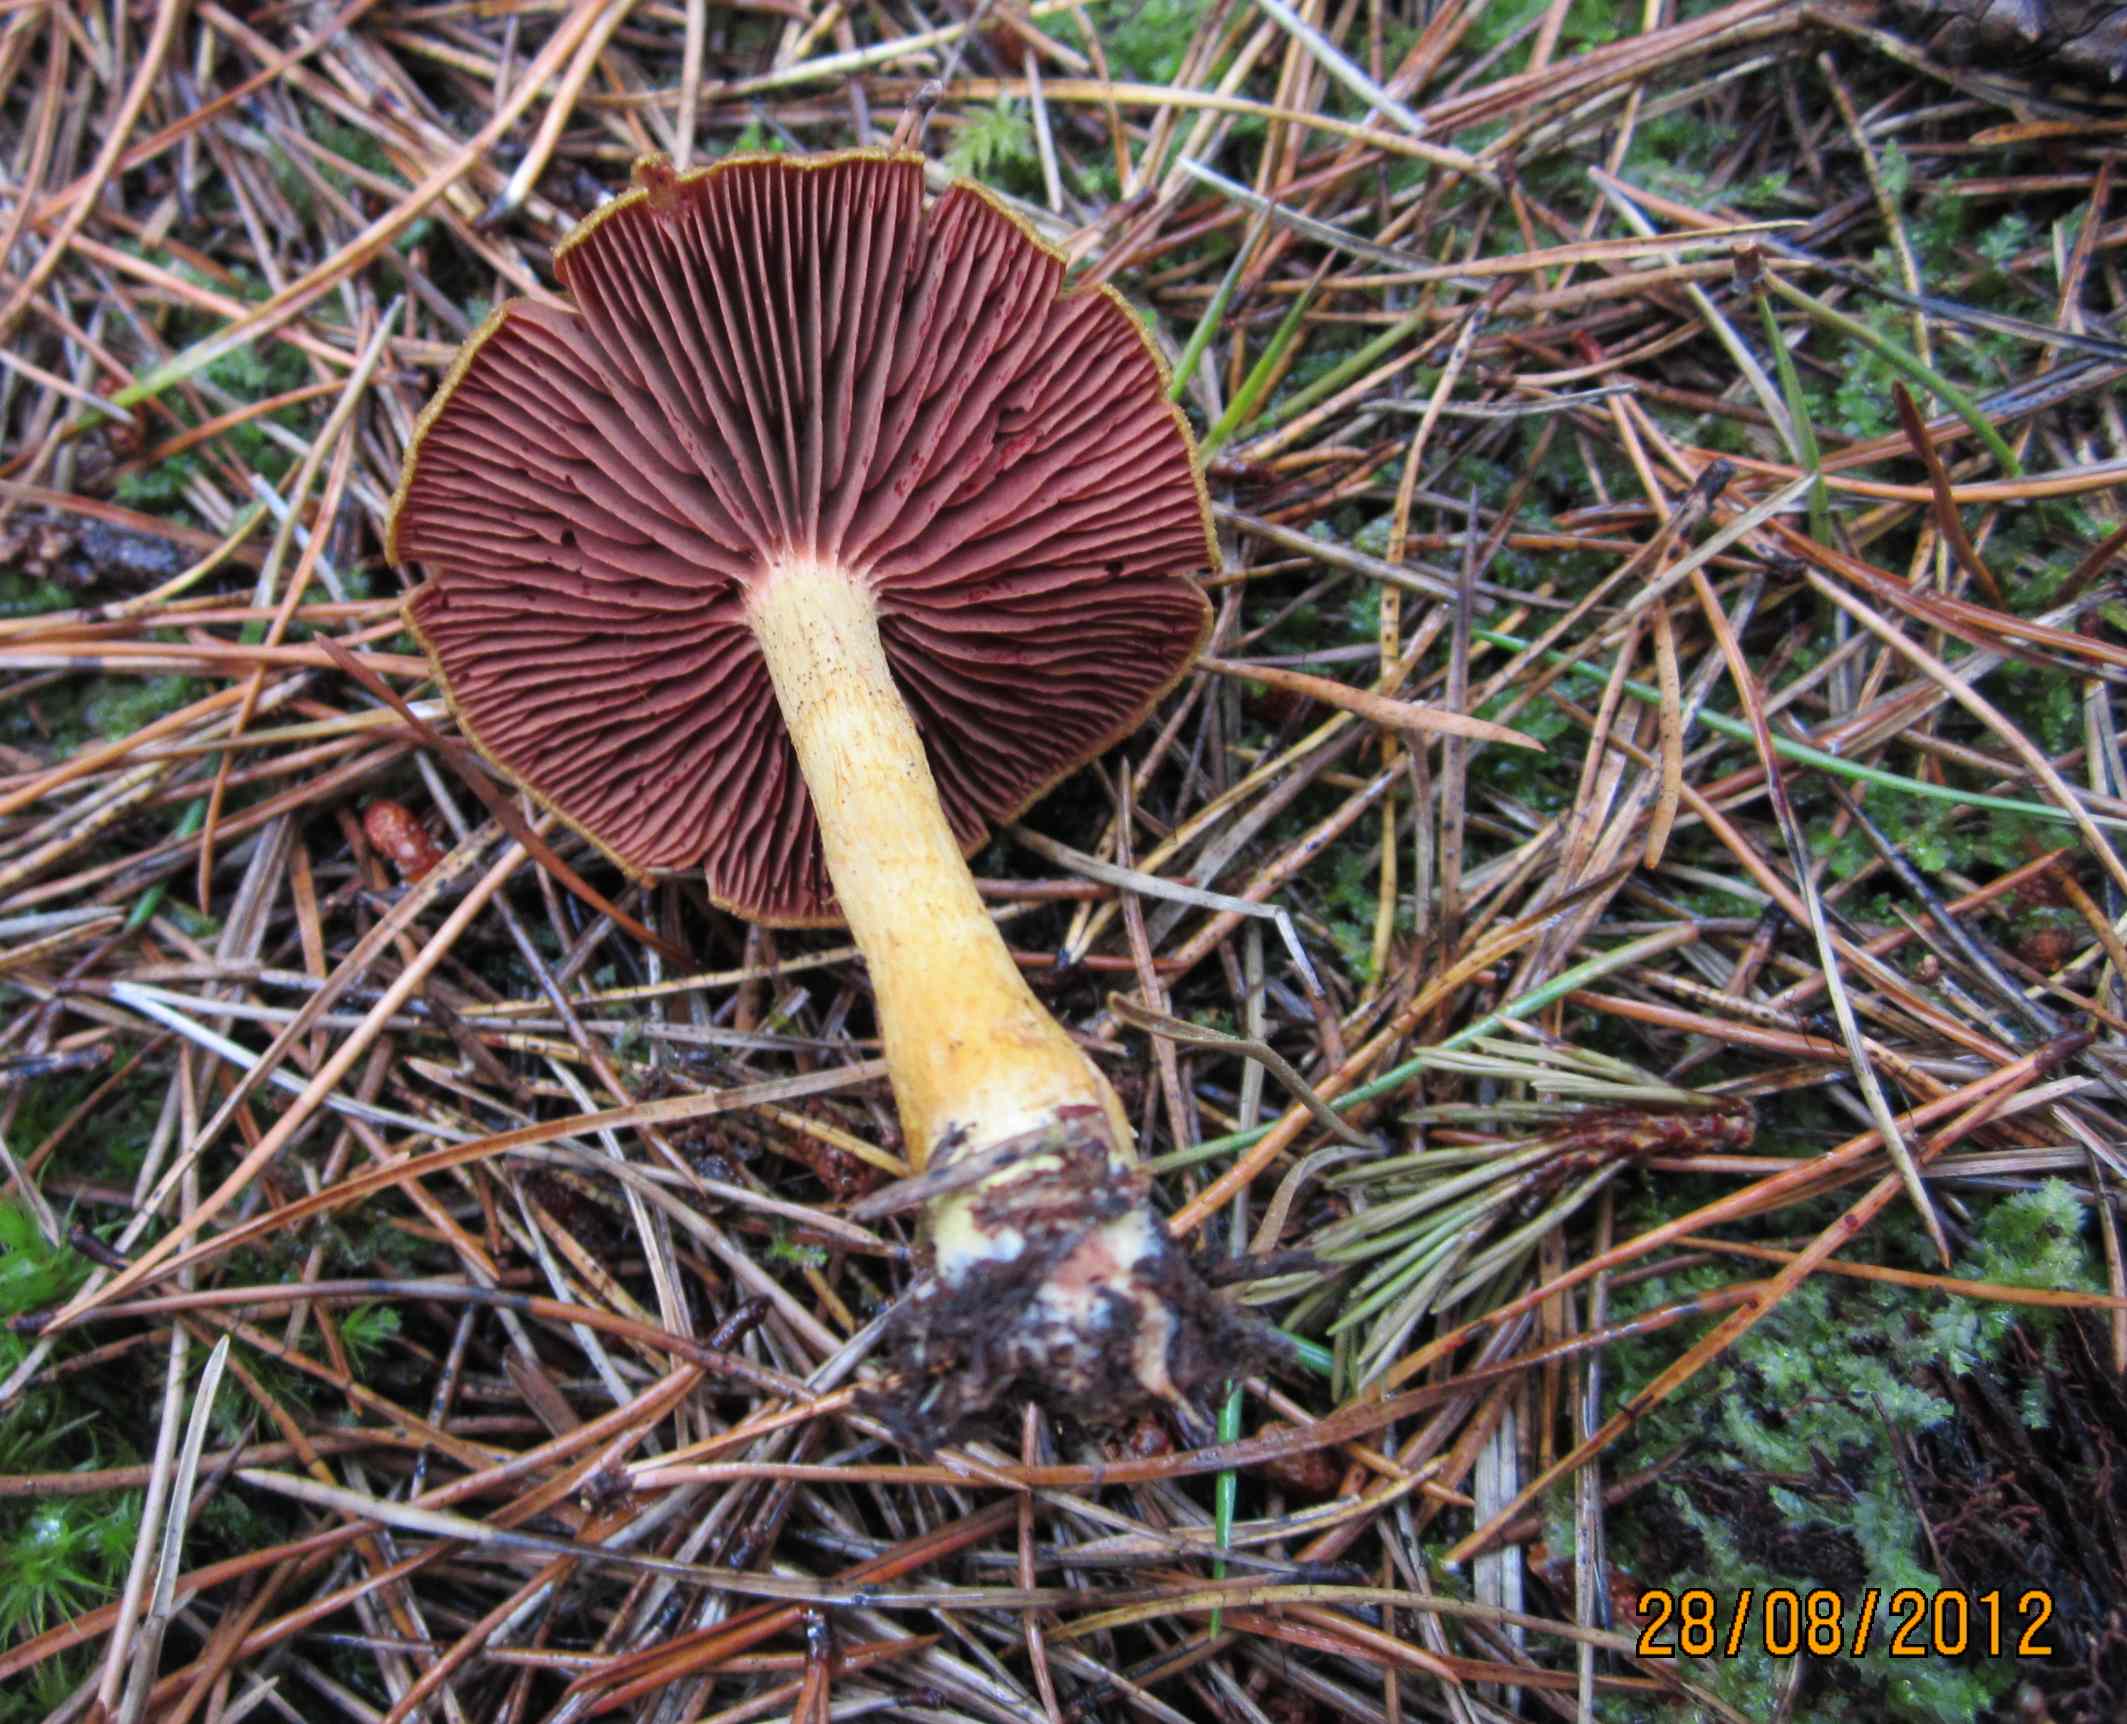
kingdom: Fungi
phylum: Basidiomycota
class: Agaricomycetes
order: Agaricales
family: Cortinariaceae
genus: Cortinarius
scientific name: Cortinarius
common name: cinnoberbladet slørhat
